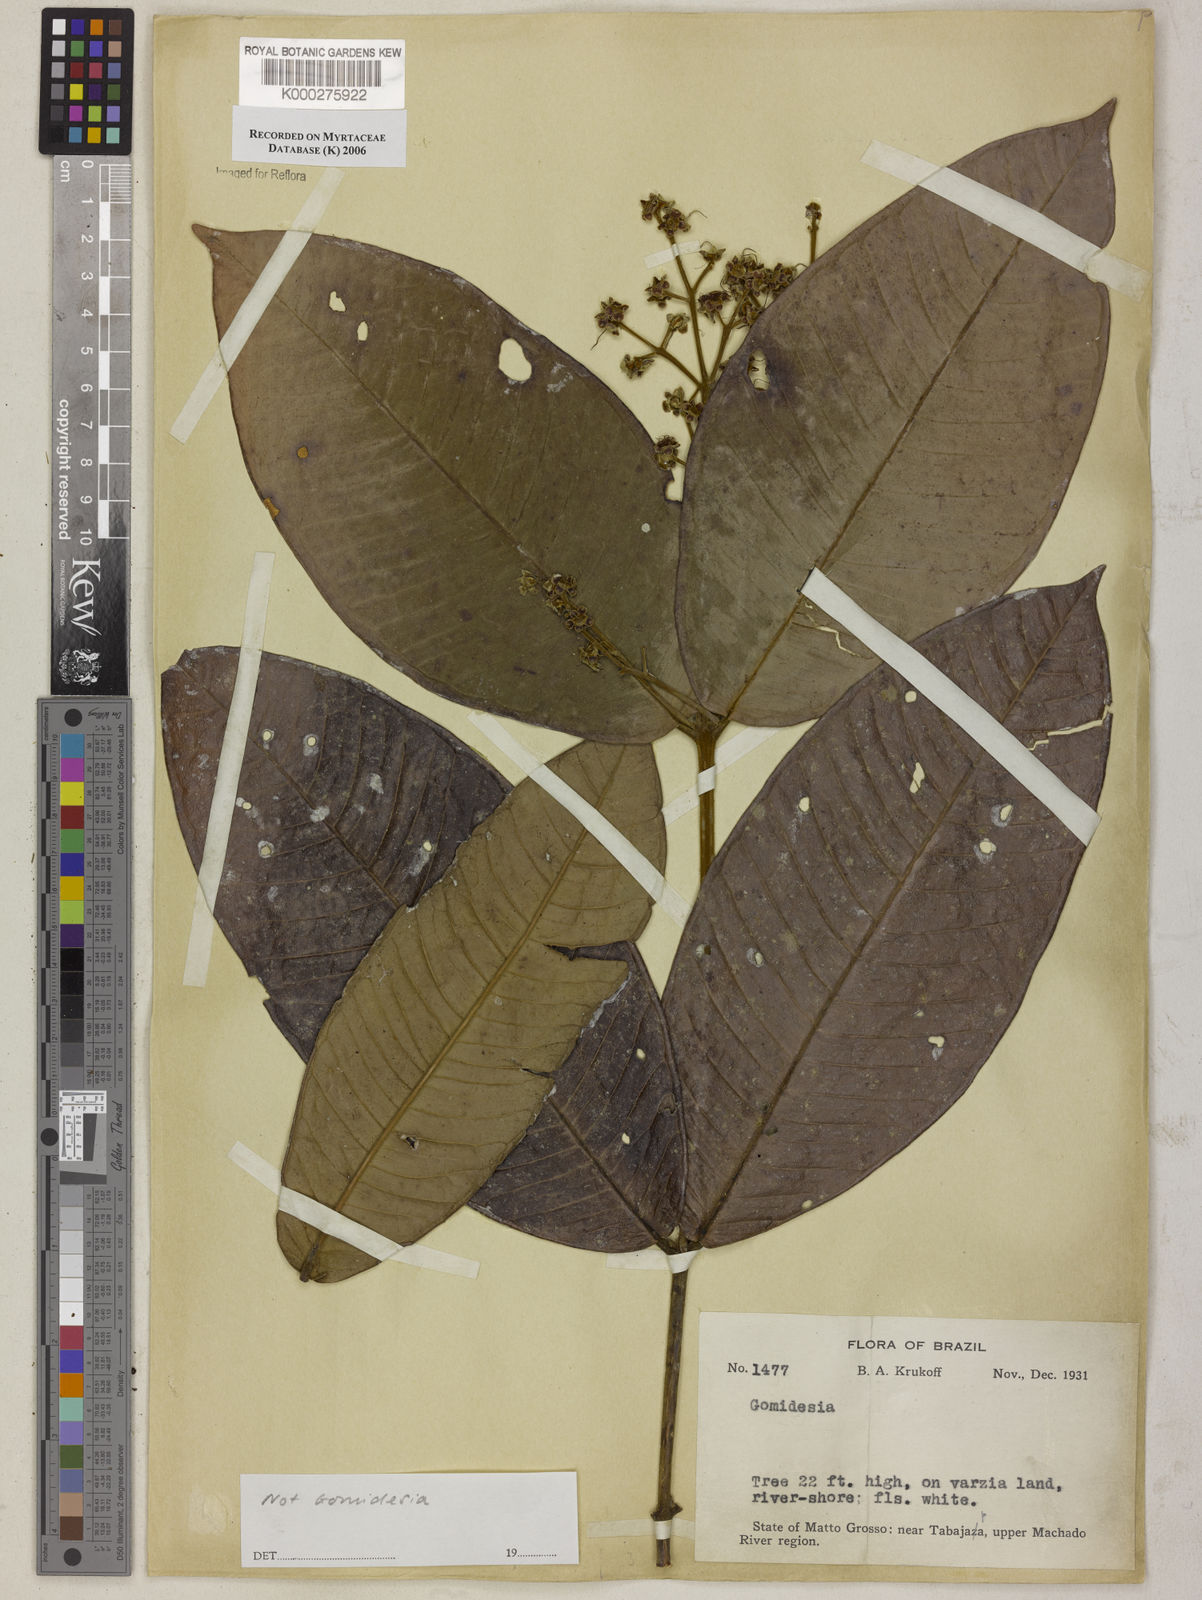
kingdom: Plantae
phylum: Tracheophyta
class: Magnoliopsida
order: Myrtales
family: Myrtaceae
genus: Myrcia
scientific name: Myrcia
